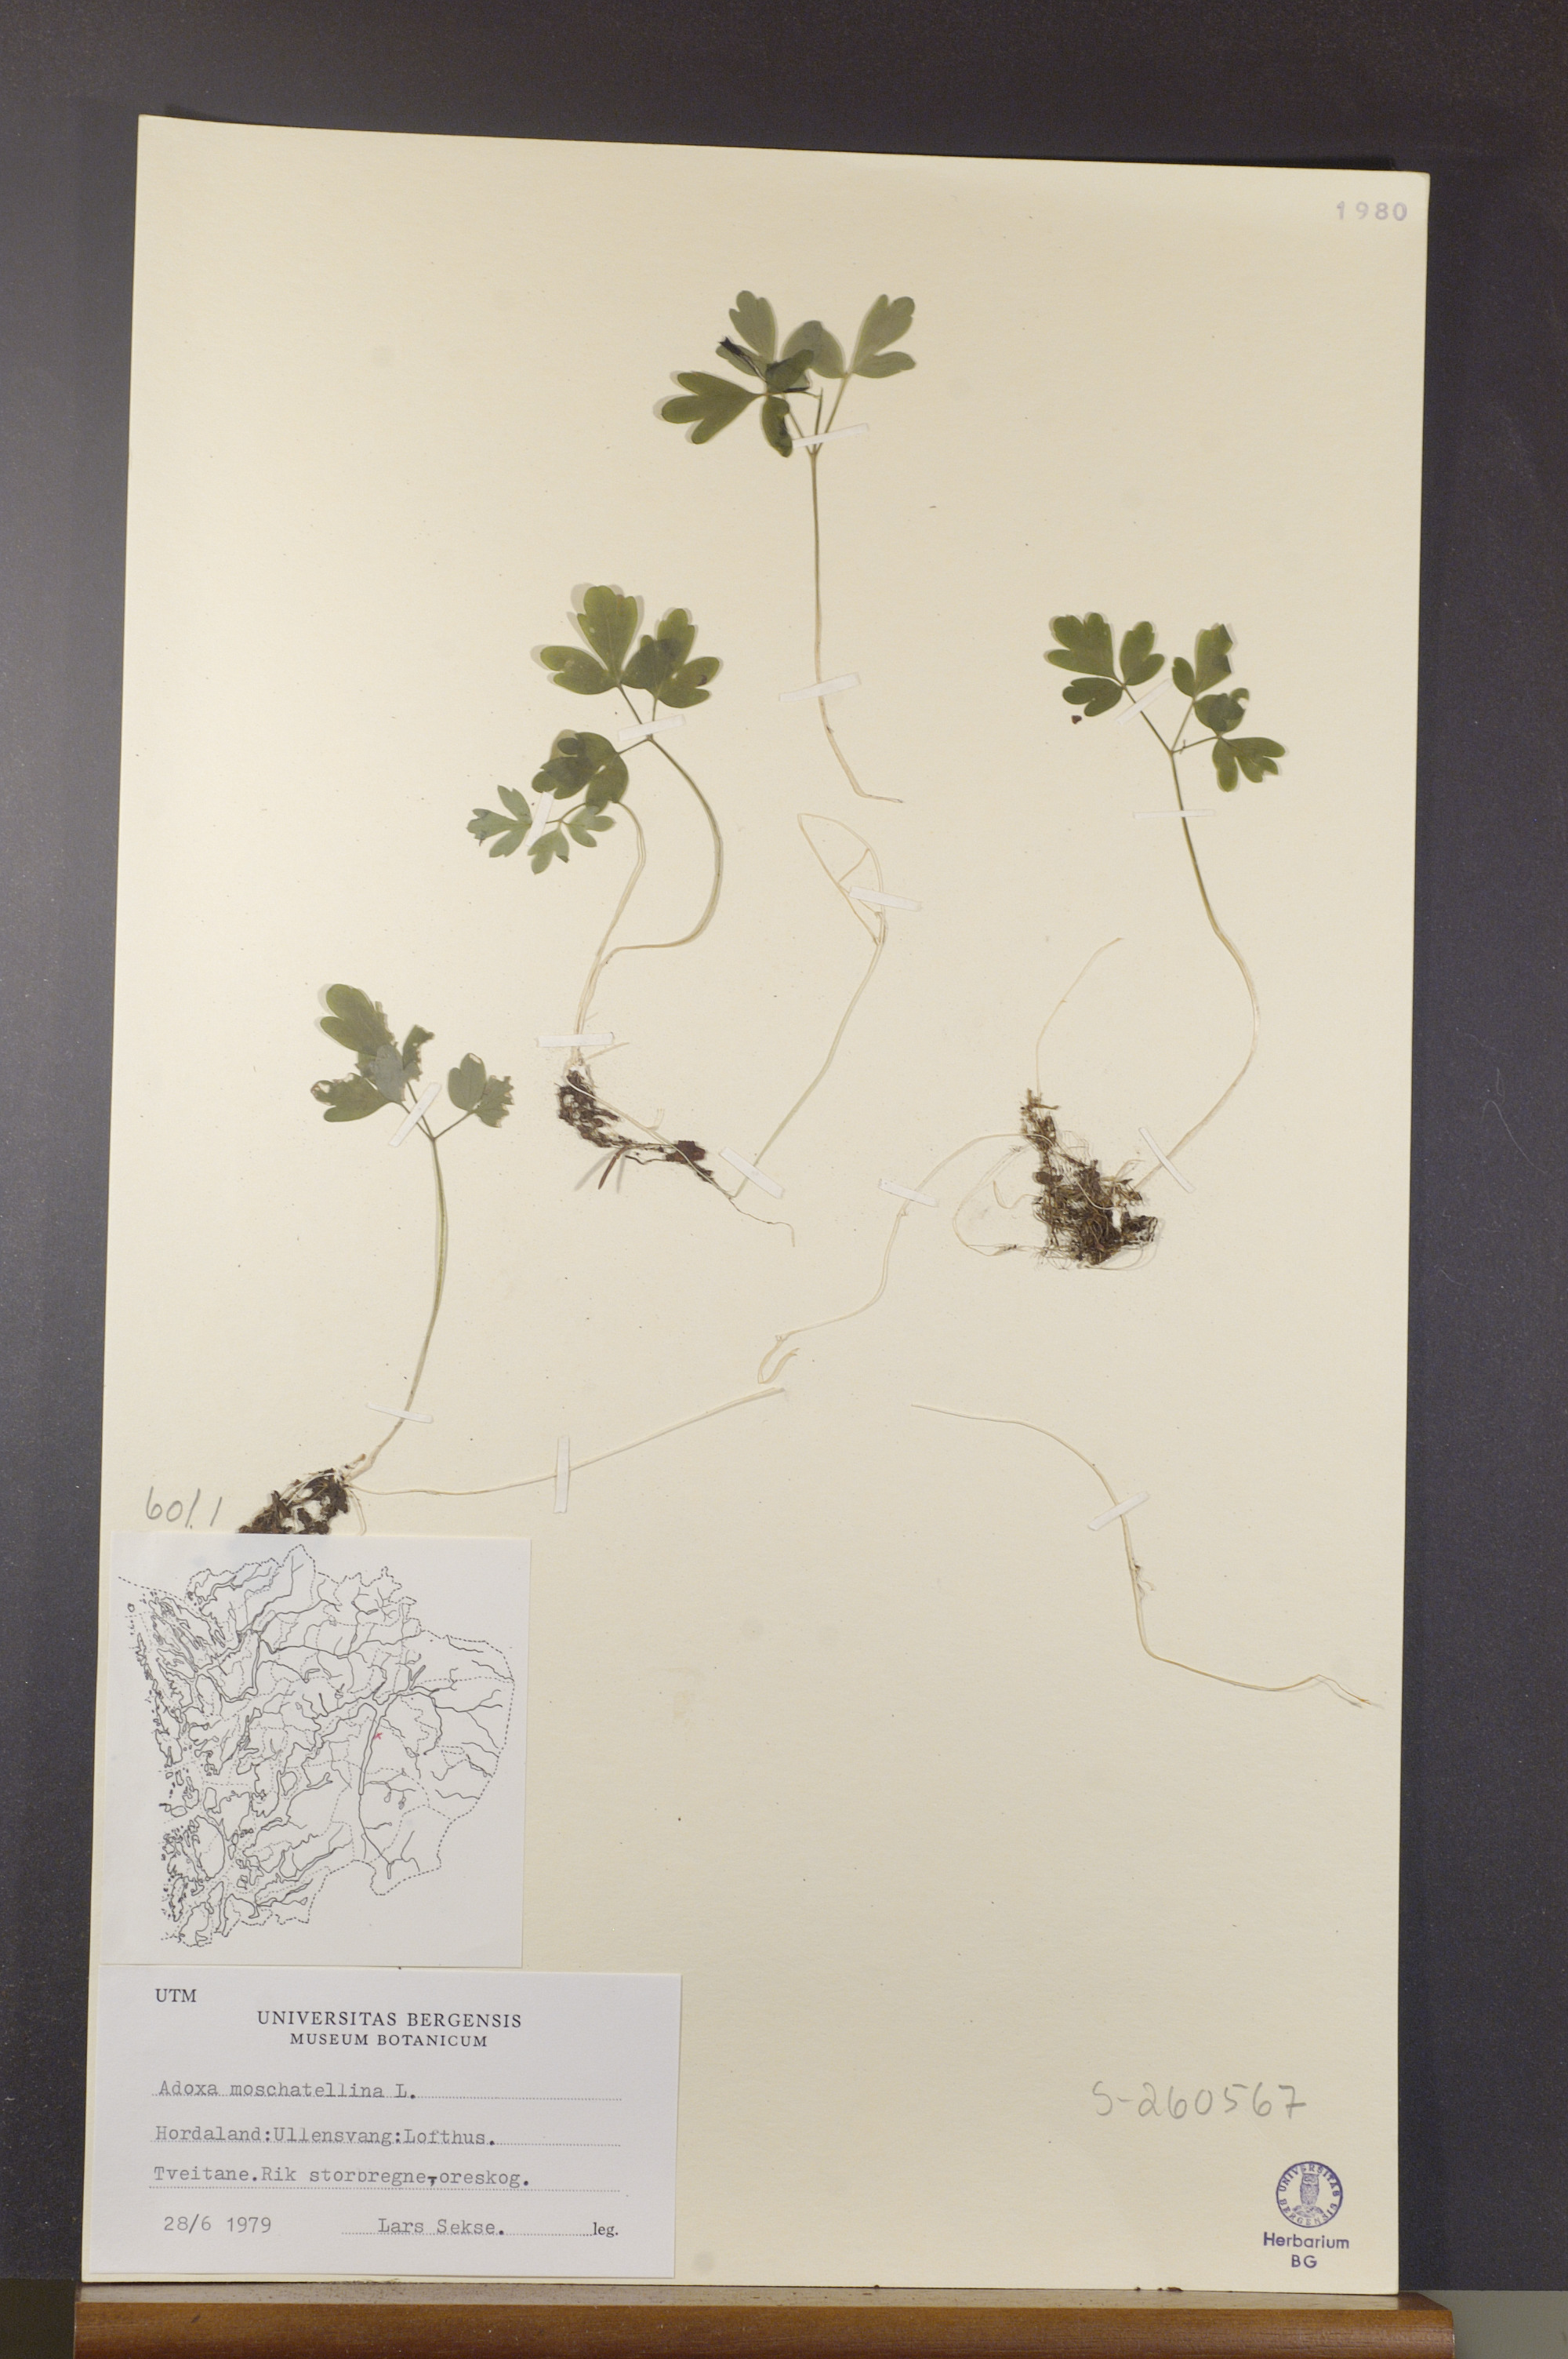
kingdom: Plantae
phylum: Tracheophyta
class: Magnoliopsida
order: Dipsacales
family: Viburnaceae
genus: Adoxa
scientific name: Adoxa moschatellina
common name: Moschatel
